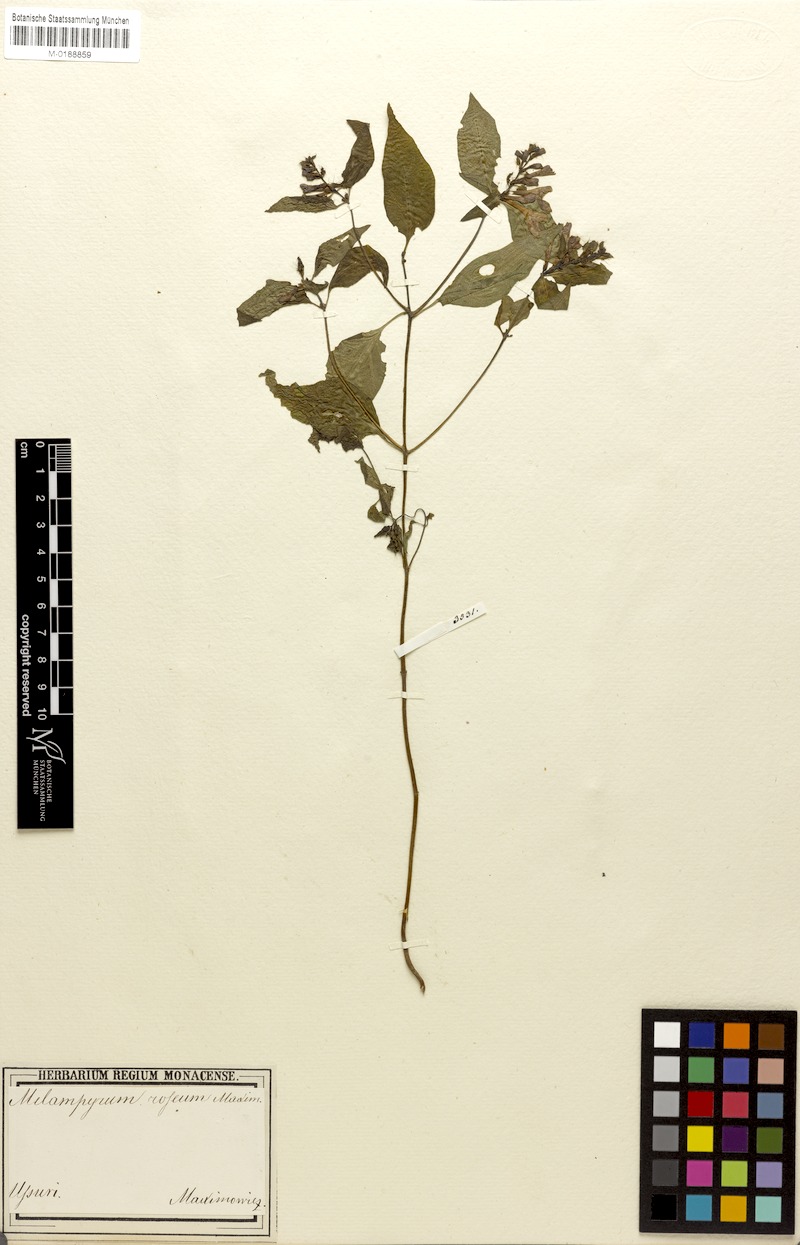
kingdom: Plantae
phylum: Tracheophyta
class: Magnoliopsida
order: Lamiales
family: Orobanchaceae
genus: Melampyrum
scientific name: Melampyrum roseum
